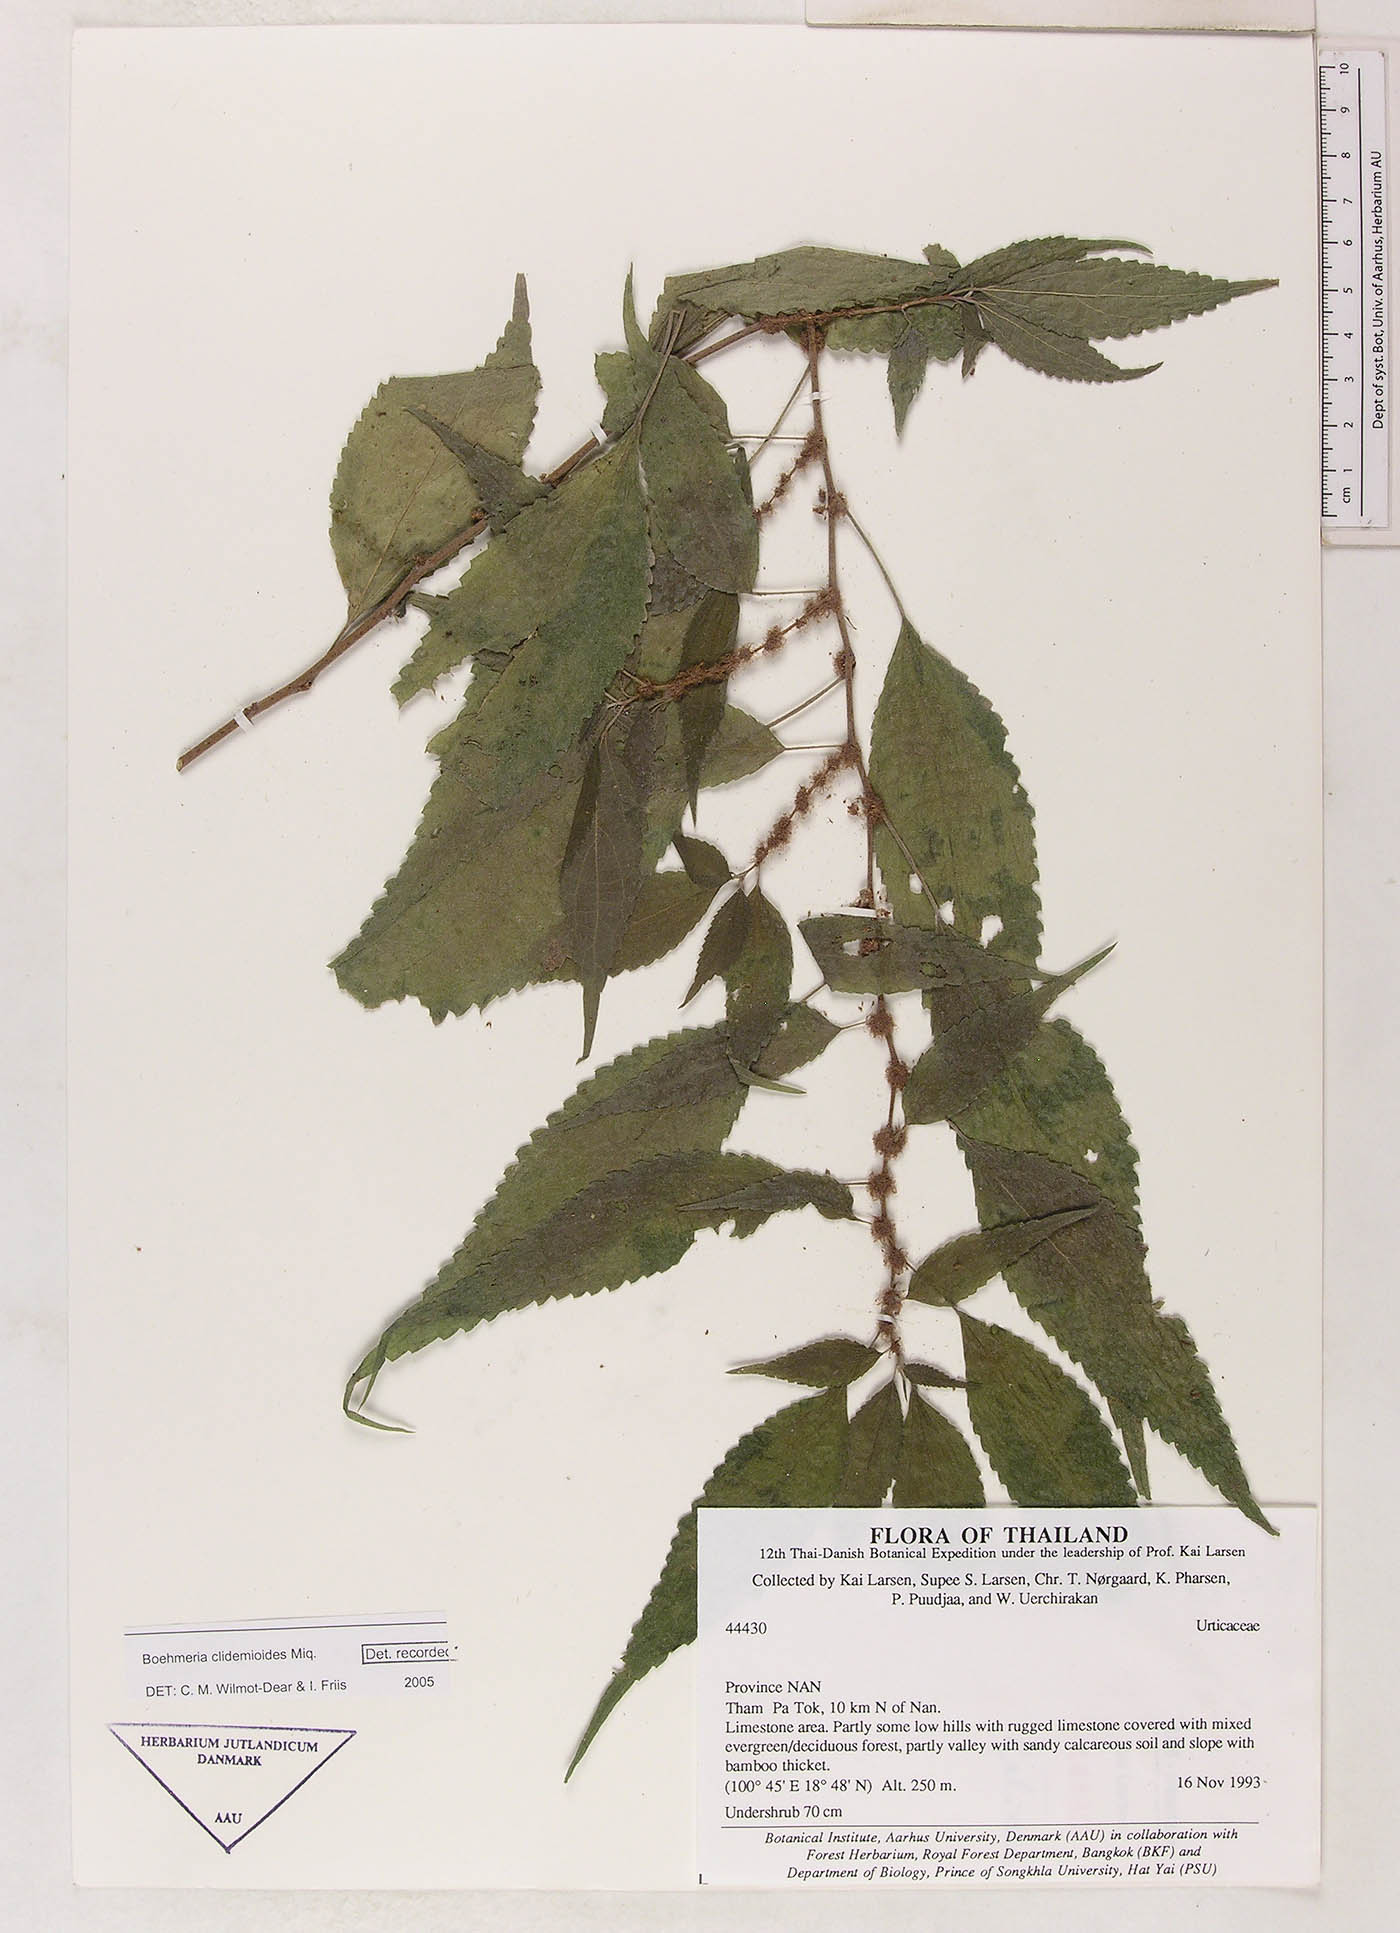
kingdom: Plantae
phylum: Tracheophyta
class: Magnoliopsida
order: Rosales
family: Urticaceae
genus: Boehmeria
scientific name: Boehmeria clidemioides
